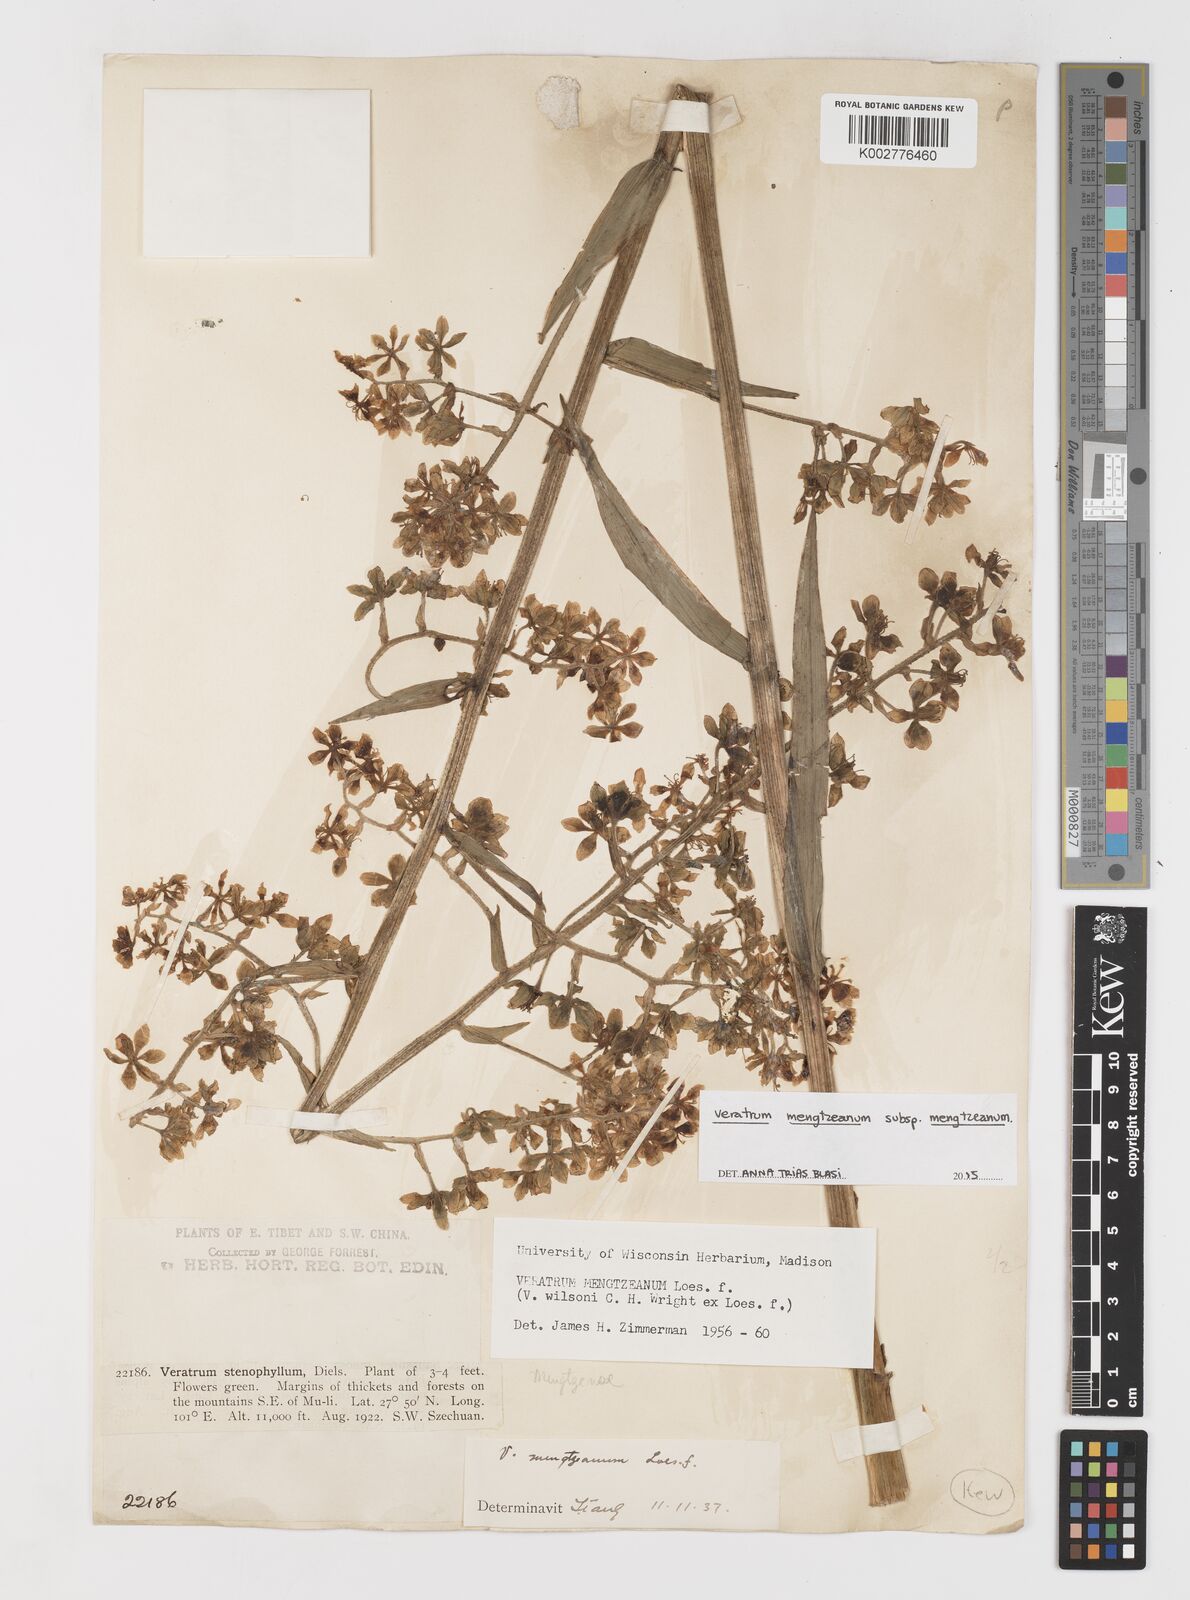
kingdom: Plantae
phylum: Tracheophyta
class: Liliopsida
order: Liliales
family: Melanthiaceae
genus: Veratrum
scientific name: Veratrum mengtzeanum
